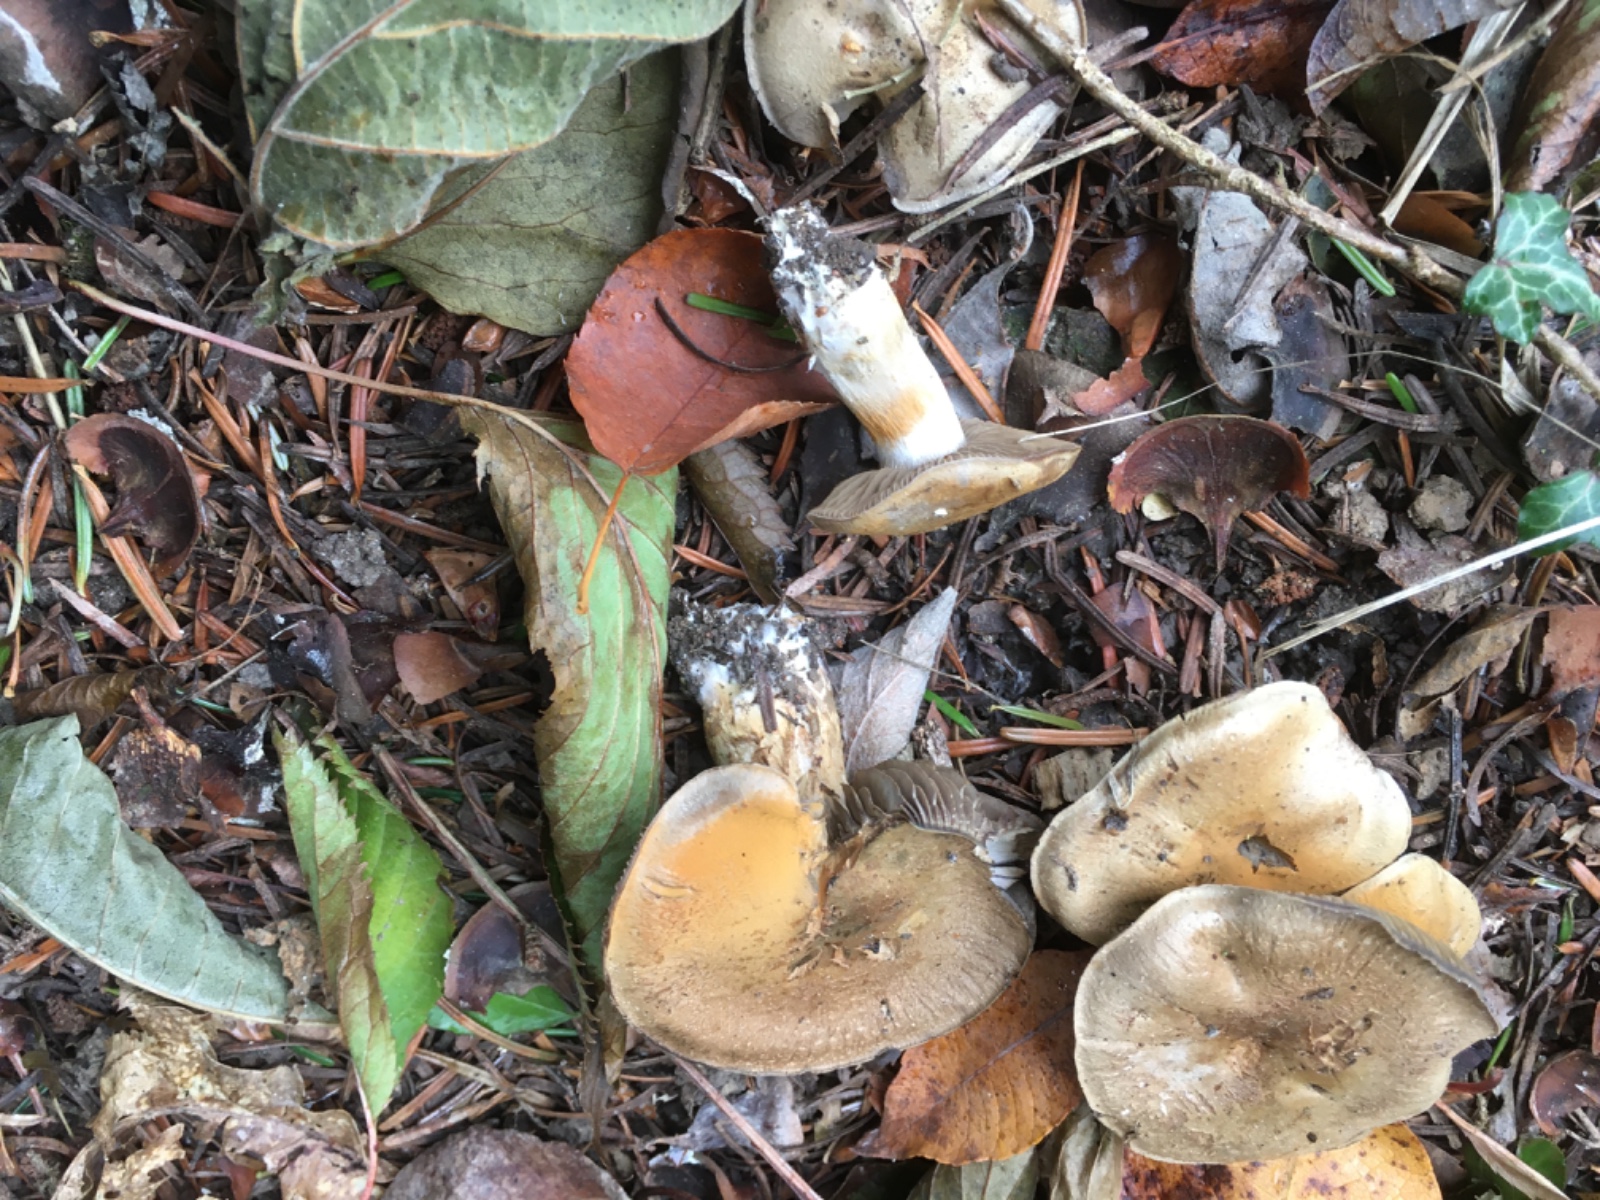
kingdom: Fungi
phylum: Basidiomycota
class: Agaricomycetes
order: Agaricales
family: Cortinariaceae
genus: Cortinarius
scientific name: Cortinarius
